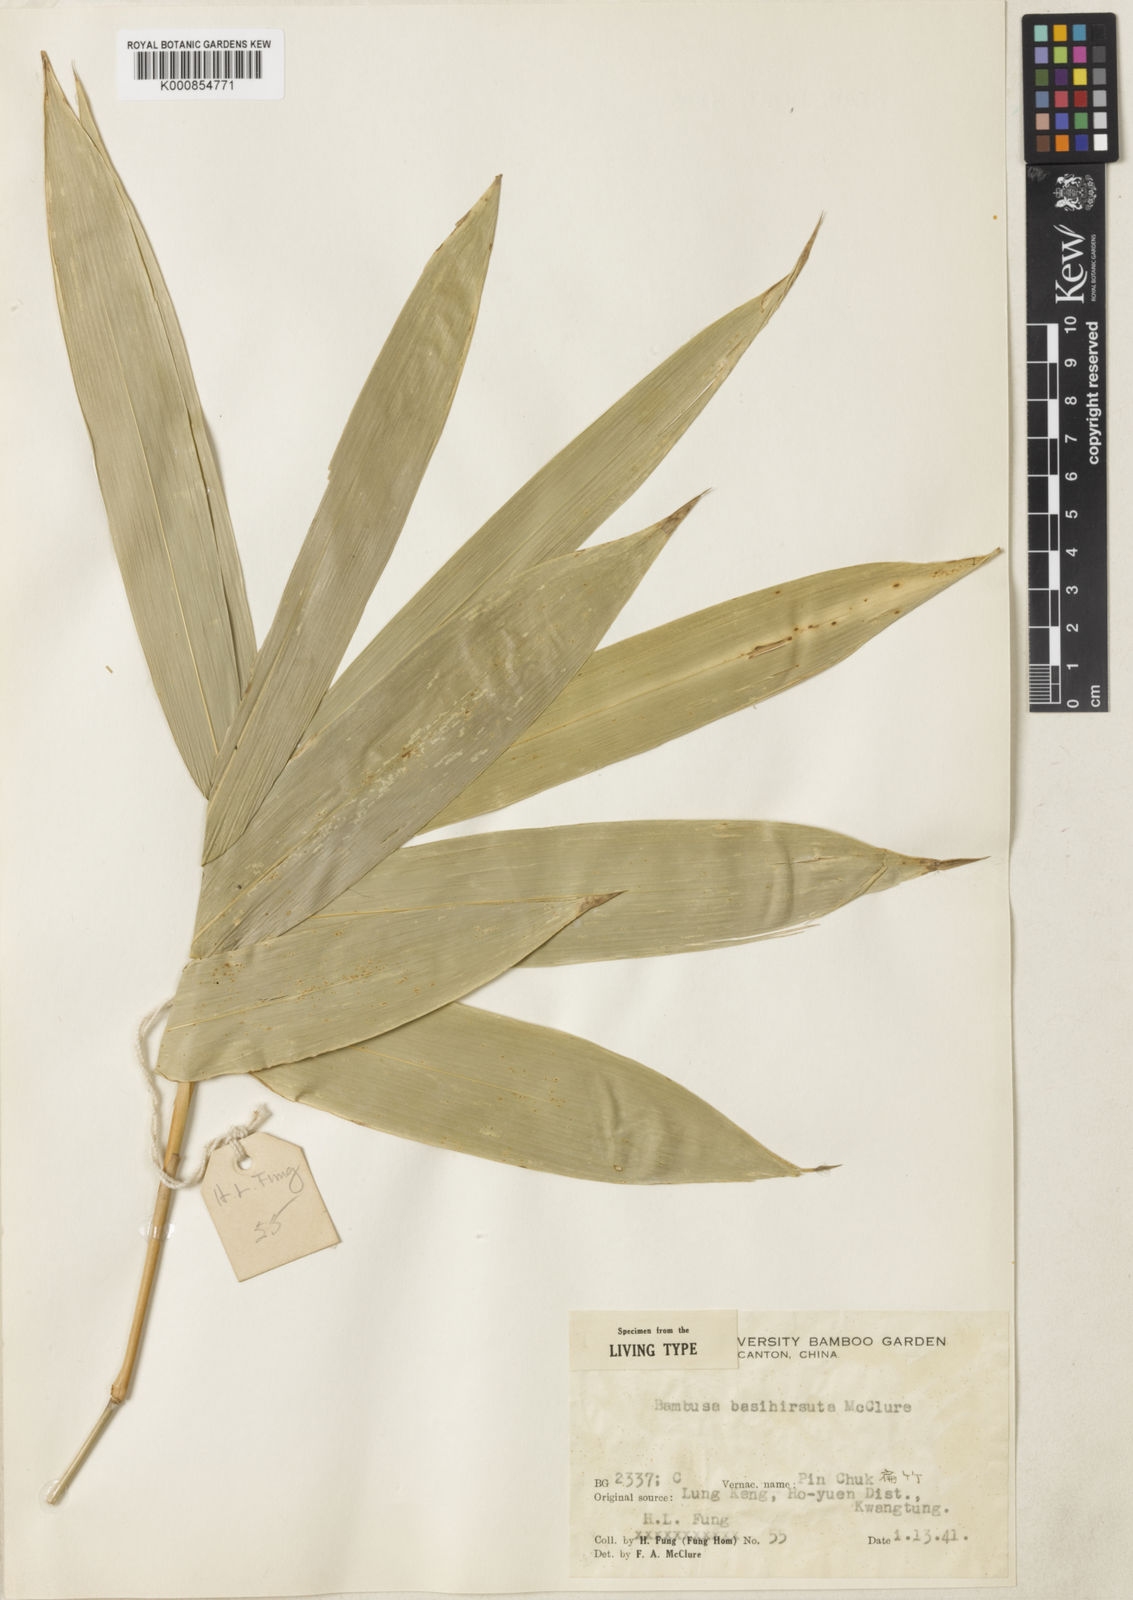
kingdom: Plantae
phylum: Tracheophyta
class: Liliopsida
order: Poales
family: Poaceae
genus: Bambusa
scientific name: Bambusa basihirsuta
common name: Pin bamboo
